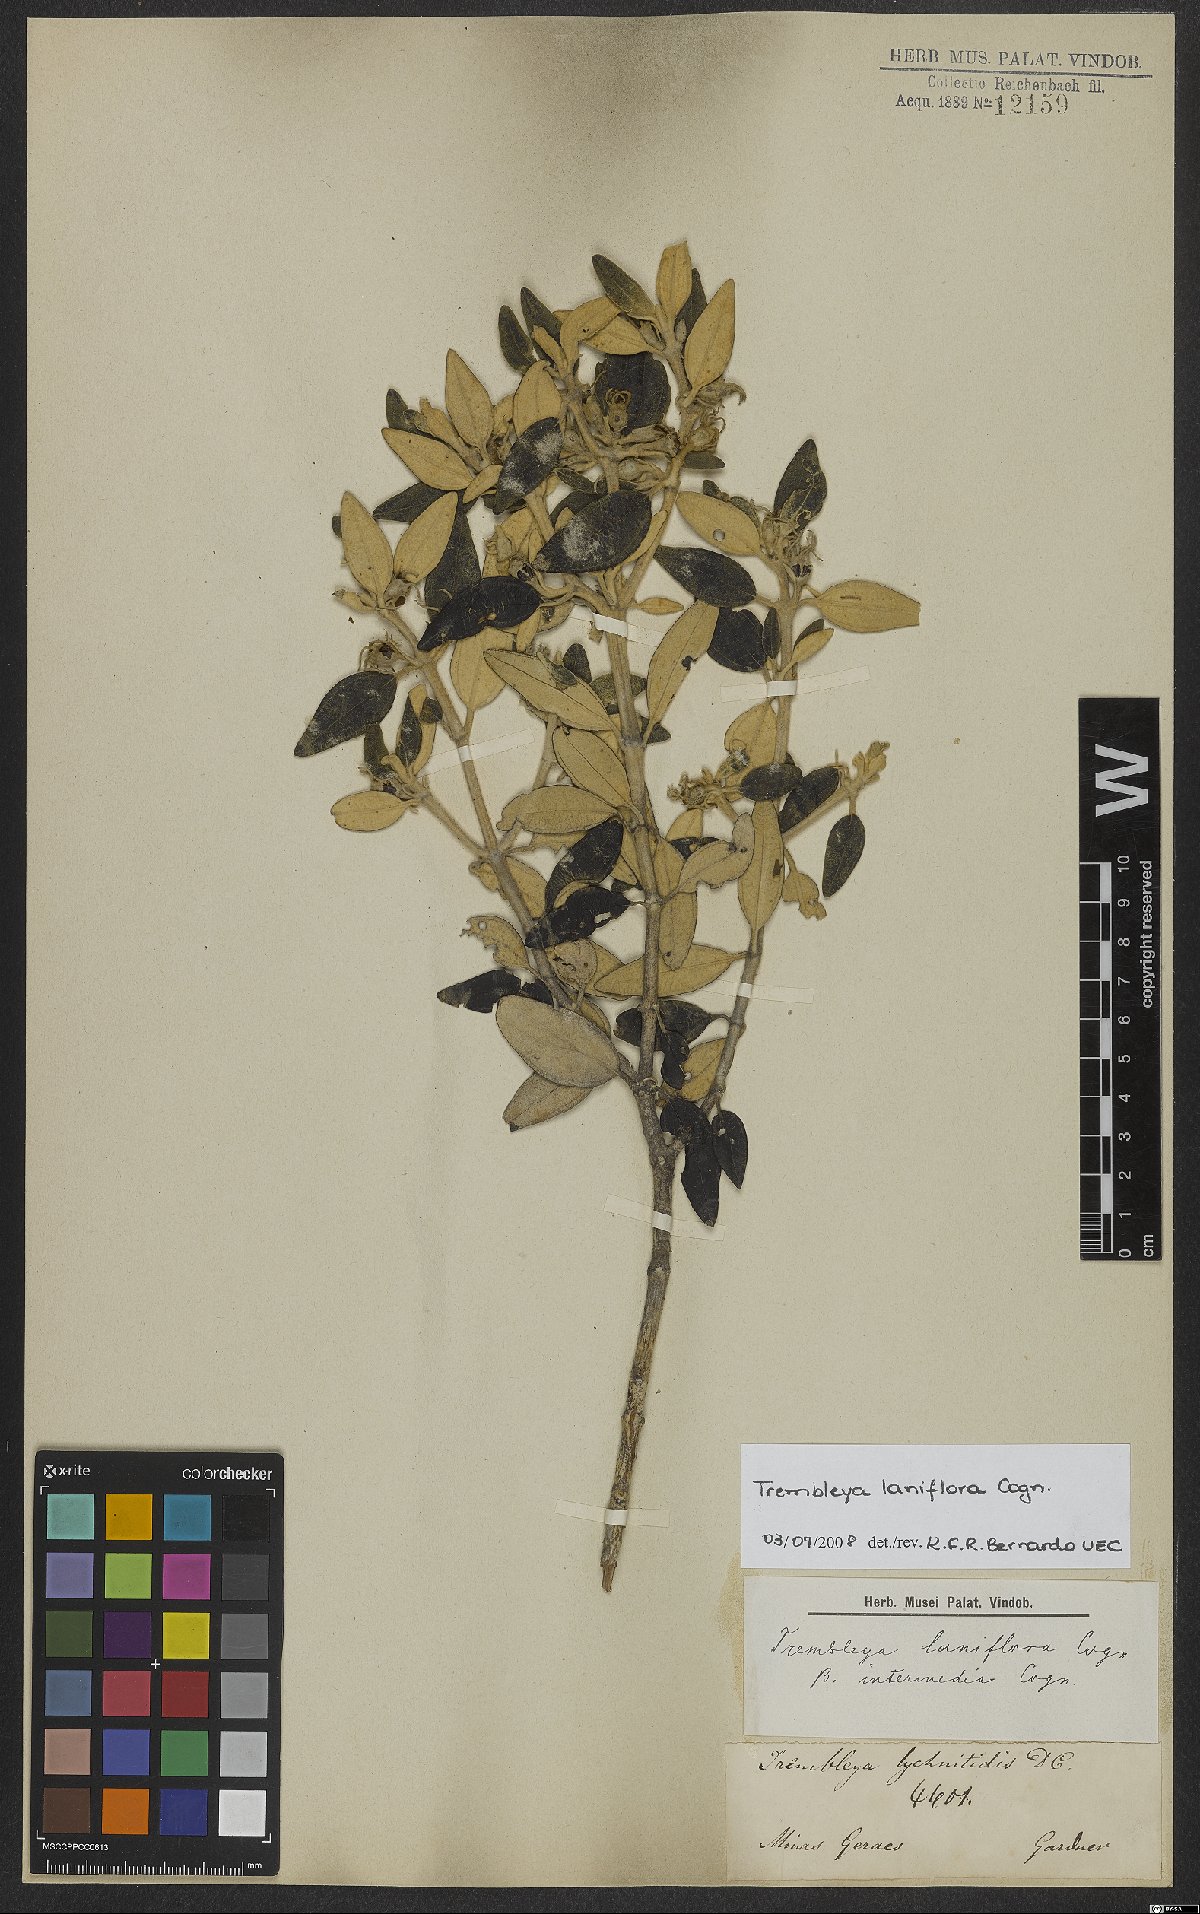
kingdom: Plantae
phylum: Tracheophyta
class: Magnoliopsida
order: Myrtales
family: Melastomataceae
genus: Microlicia
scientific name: Microlicia laniflora
